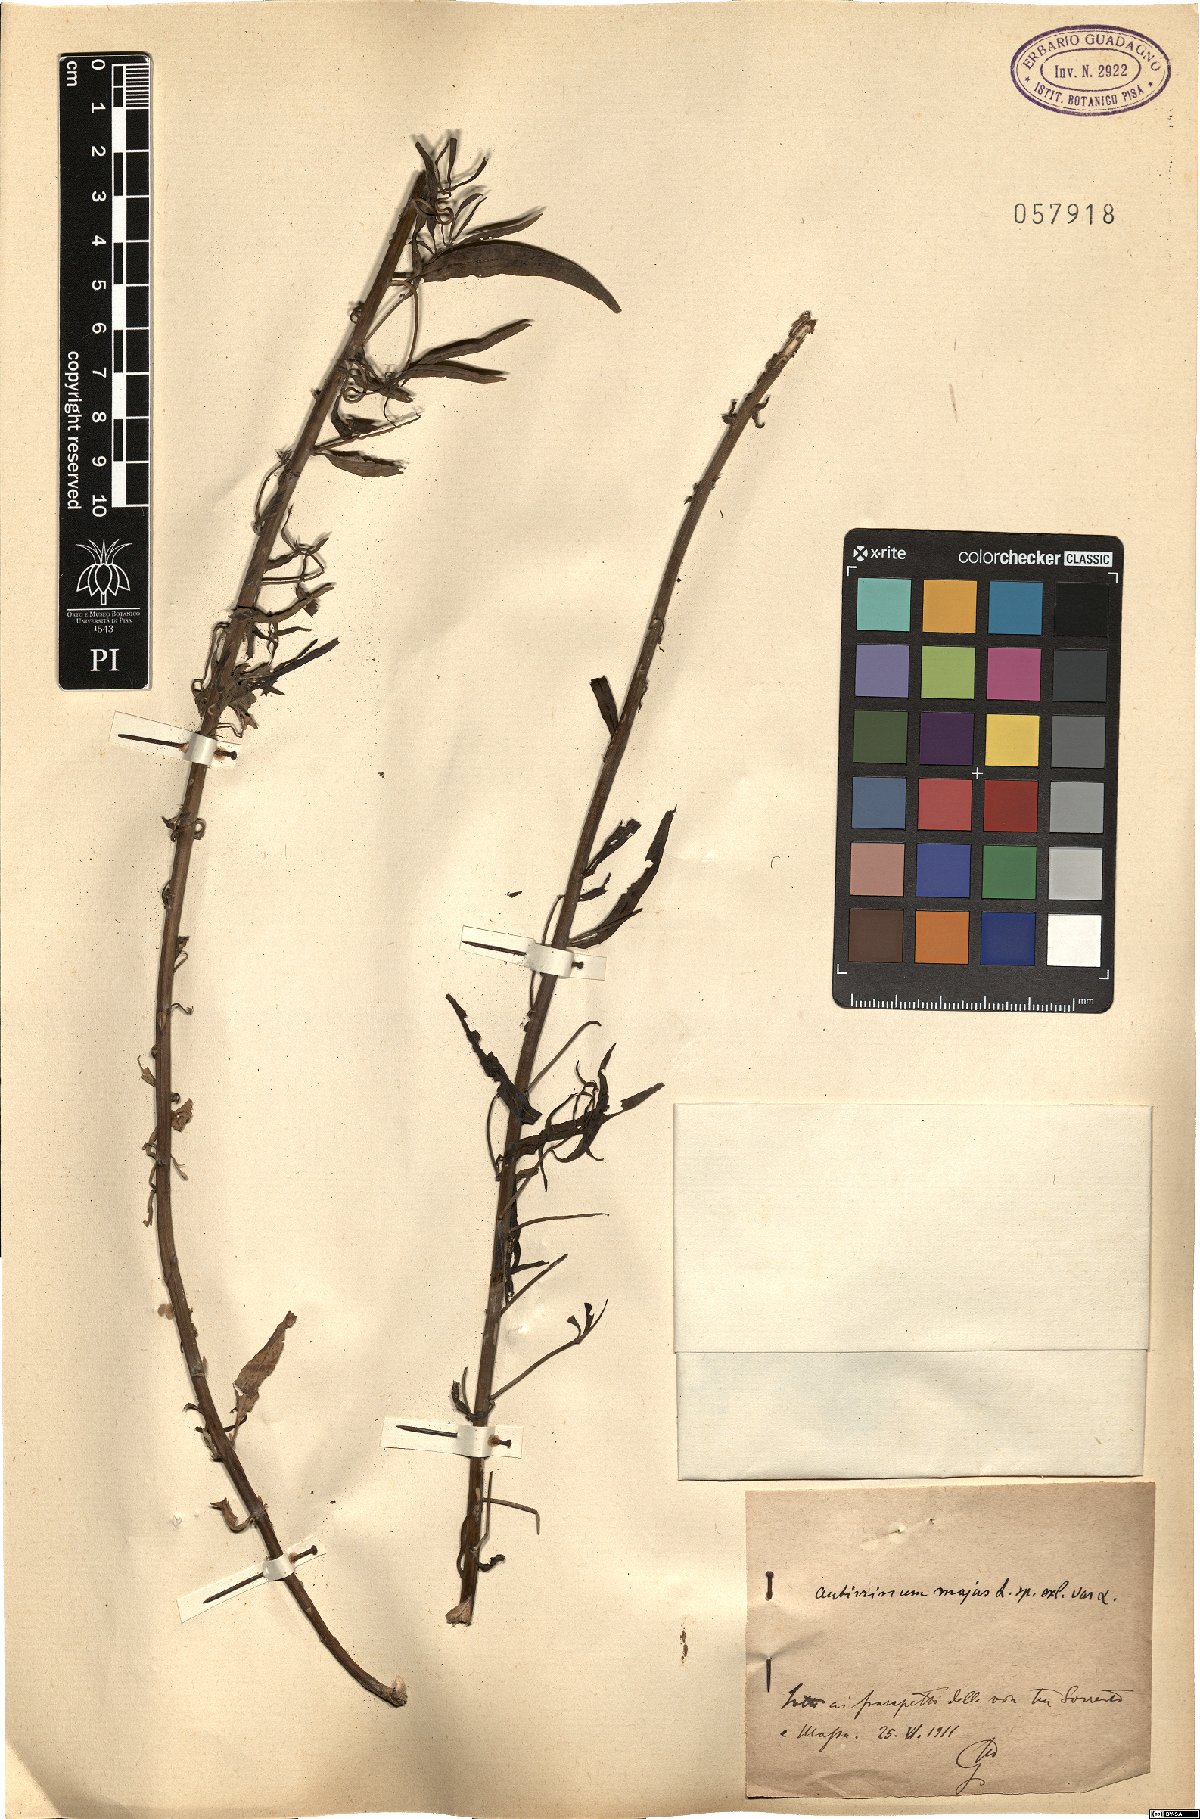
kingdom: Plantae
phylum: Tracheophyta
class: Magnoliopsida
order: Lamiales
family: Plantaginaceae
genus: Antirrhinum
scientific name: Antirrhinum majus
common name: Snapdragon
